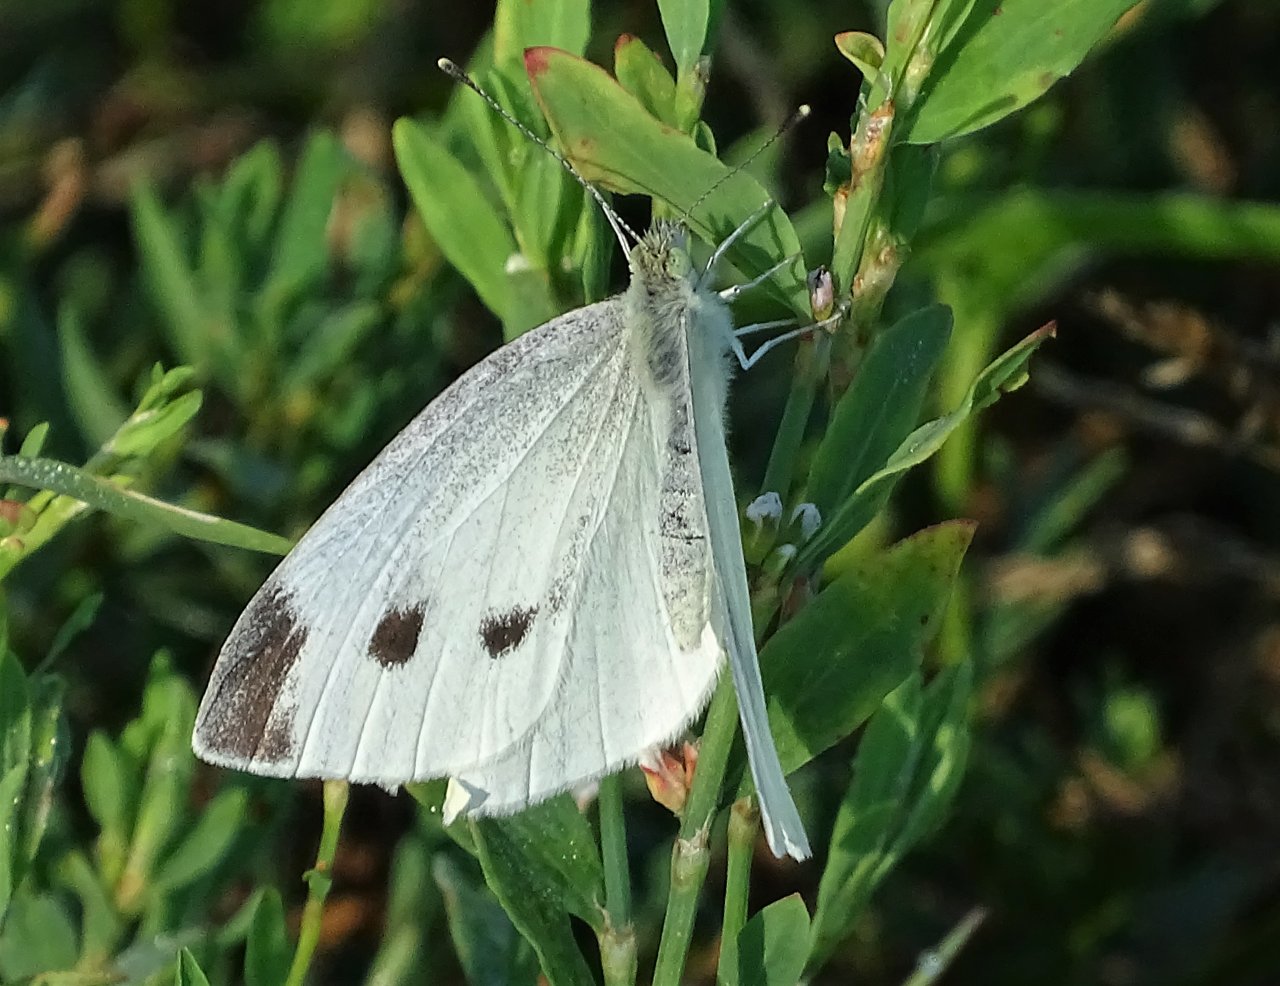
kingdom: Animalia
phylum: Arthropoda
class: Insecta
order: Lepidoptera
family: Pieridae
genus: Pieris
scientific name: Pieris rapae
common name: Cabbage White
